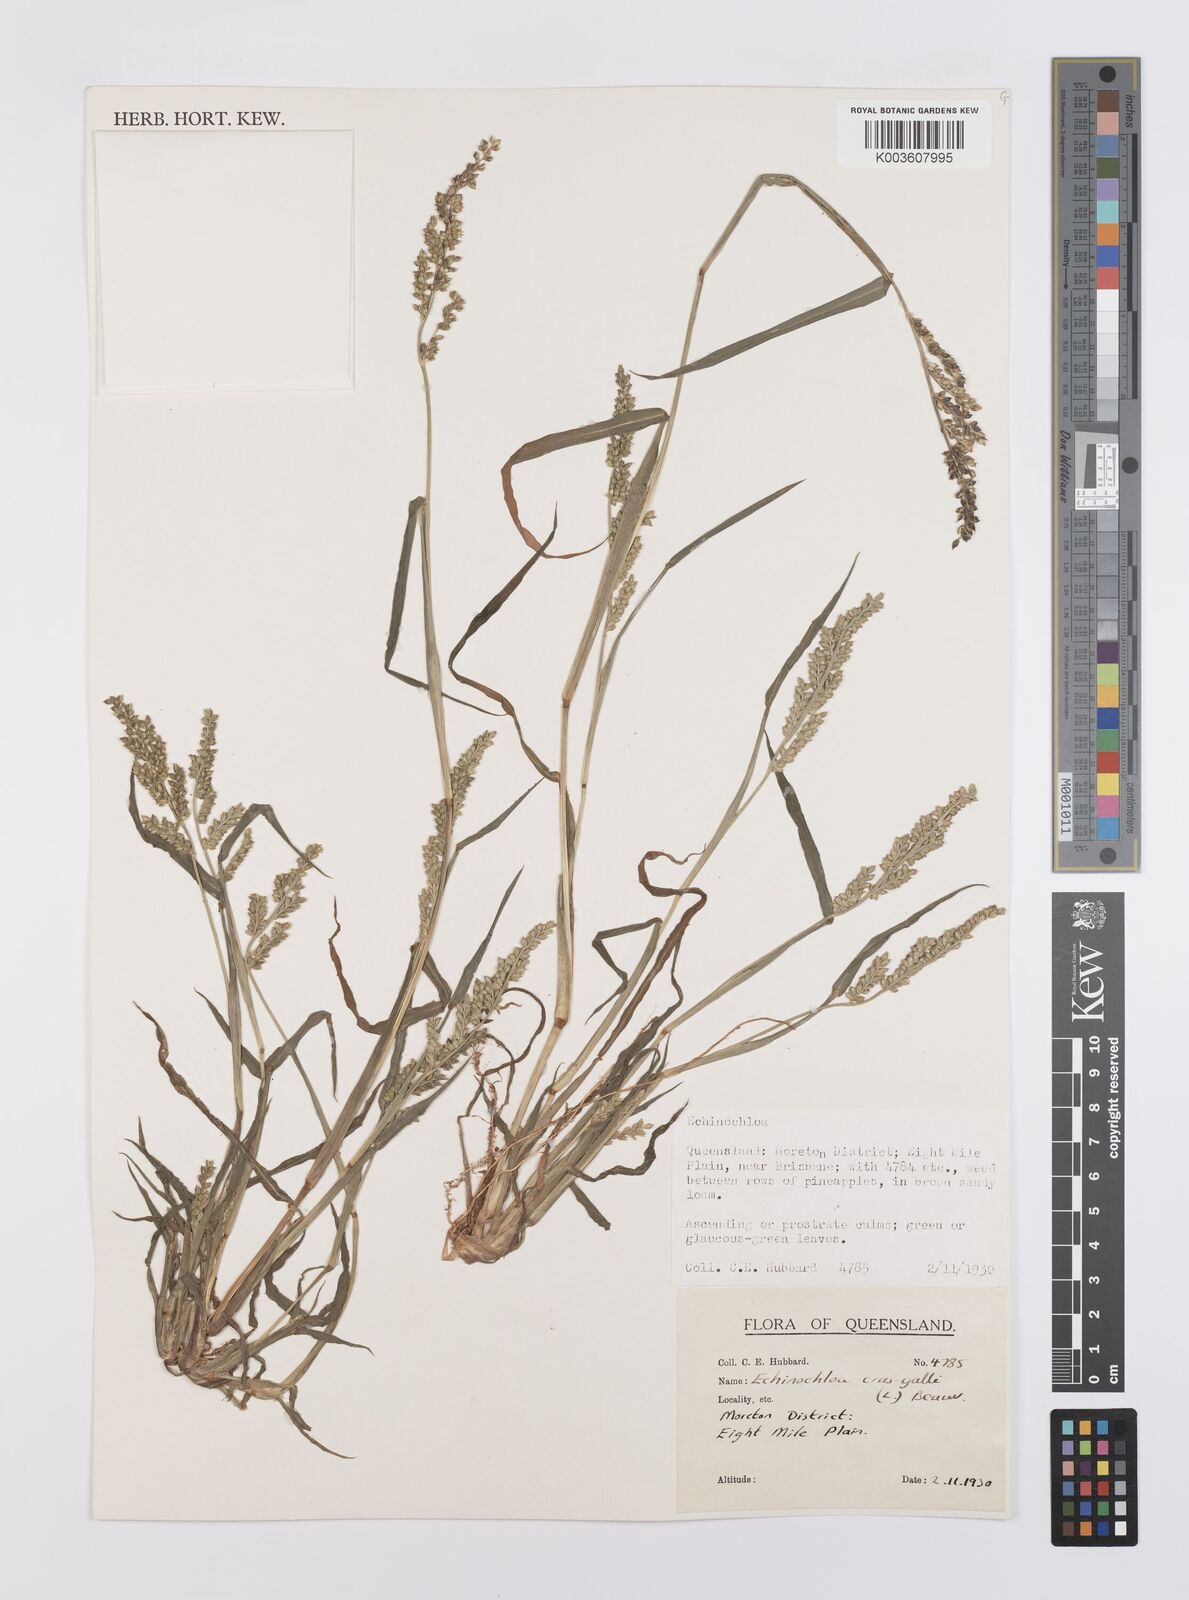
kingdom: Plantae
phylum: Tracheophyta
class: Liliopsida
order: Poales
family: Poaceae
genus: Echinochloa
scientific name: Echinochloa crus-galli
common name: Cockspur
